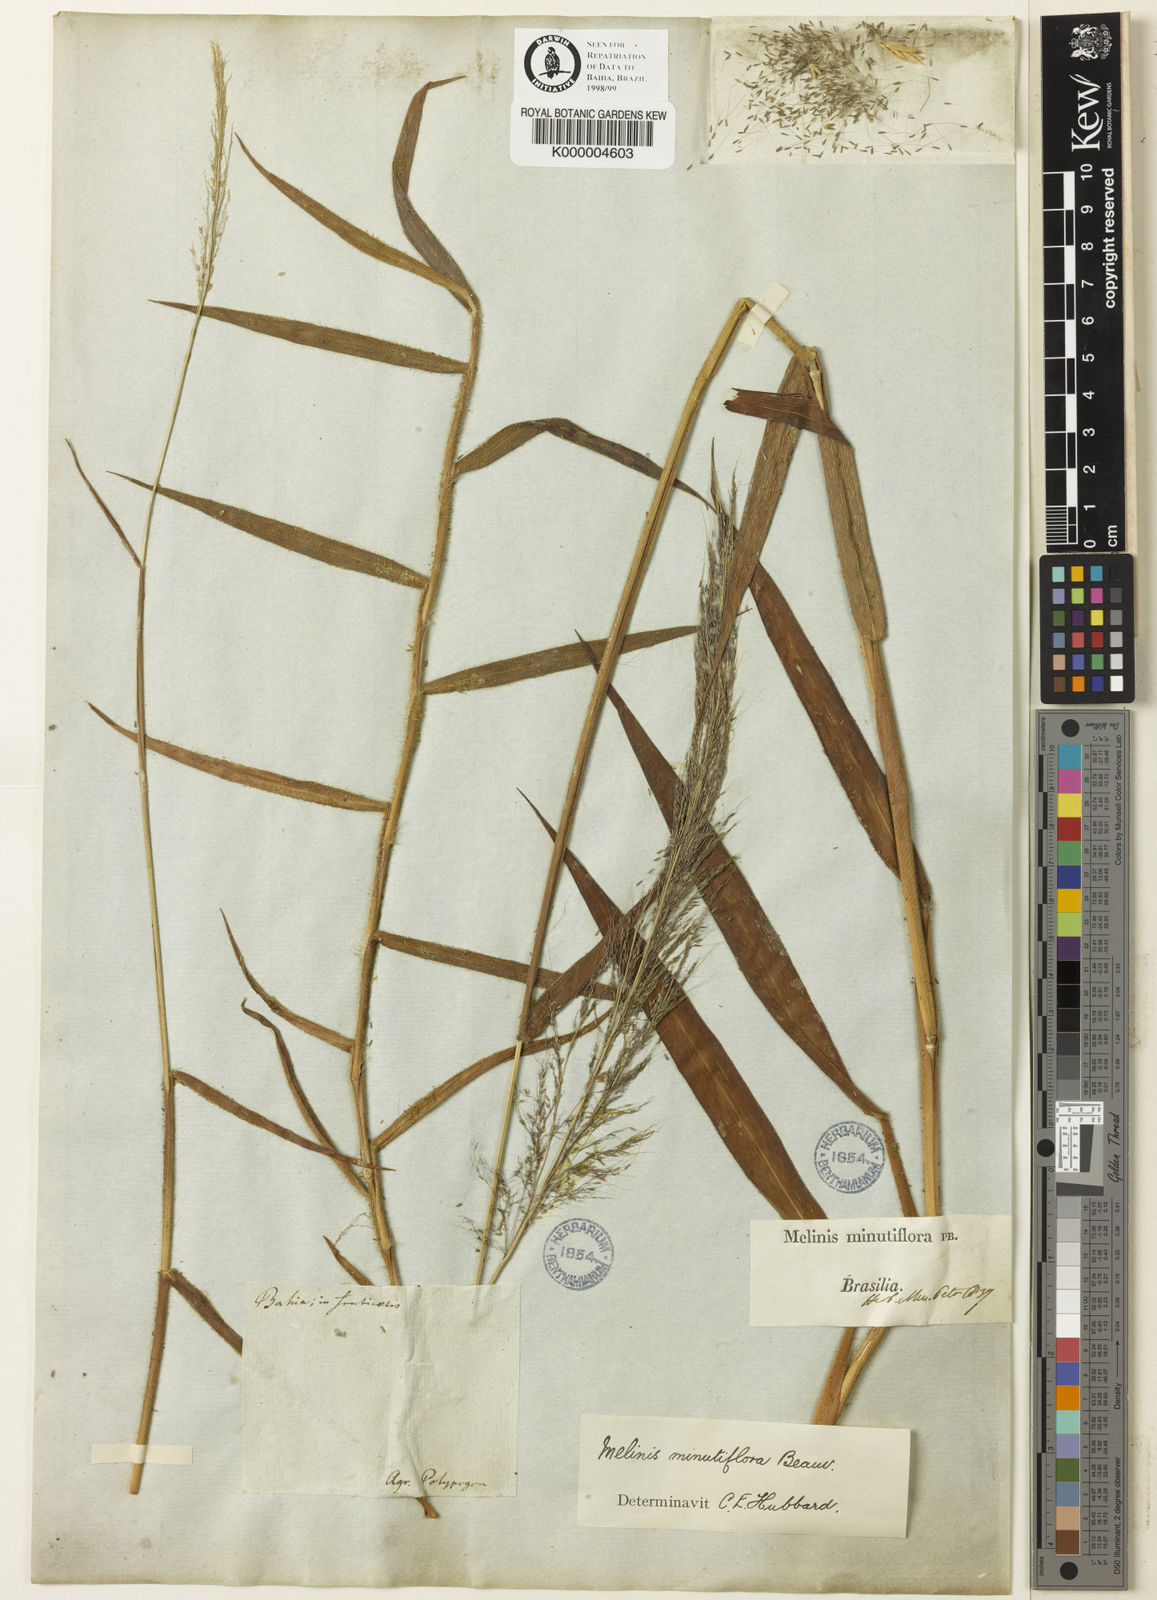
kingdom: Plantae
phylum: Tracheophyta
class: Liliopsida
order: Poales
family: Poaceae
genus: Melinis
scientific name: Melinis minutiflora
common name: Molassesgrass
